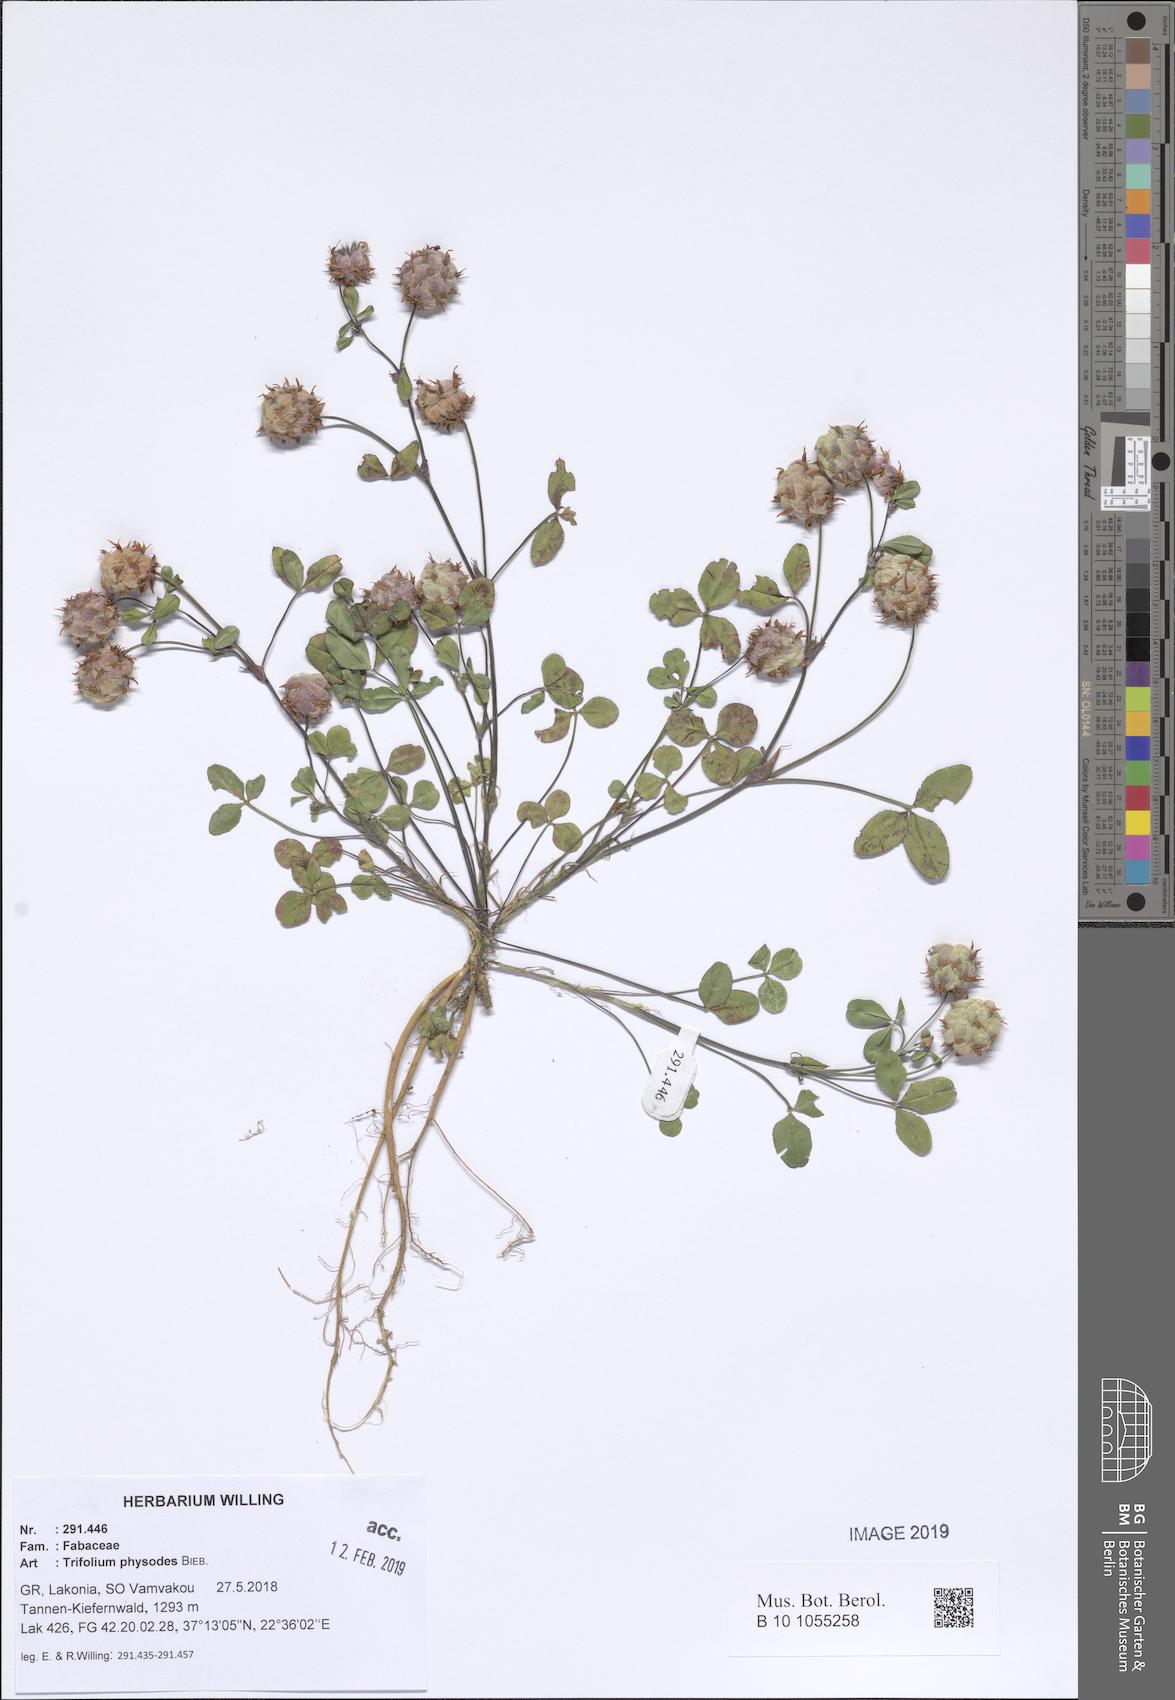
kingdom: Plantae
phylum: Tracheophyta
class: Magnoliopsida
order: Fabales
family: Fabaceae
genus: Trifolium
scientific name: Trifolium physodes
